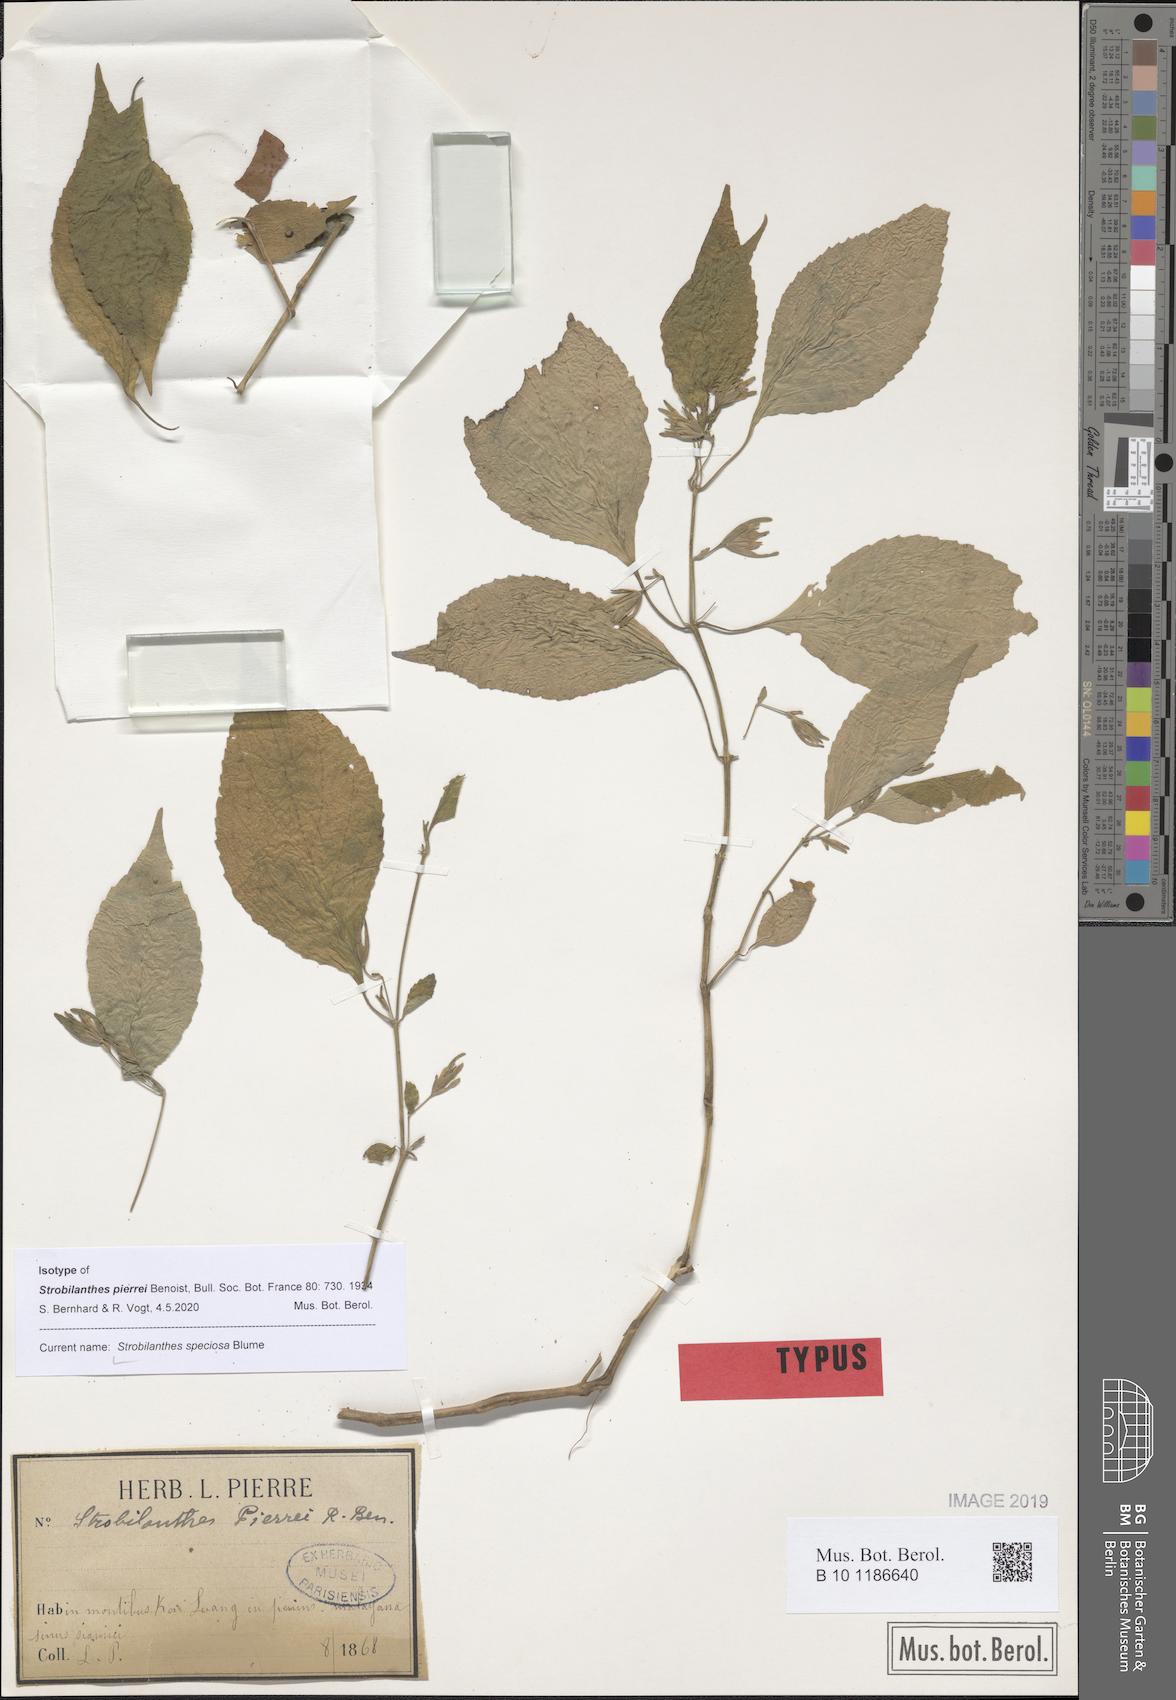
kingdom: Plantae
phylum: Tracheophyta
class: Magnoliopsida
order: Lamiales
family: Acanthaceae
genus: Strobilanthes
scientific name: Strobilanthes speciosa
